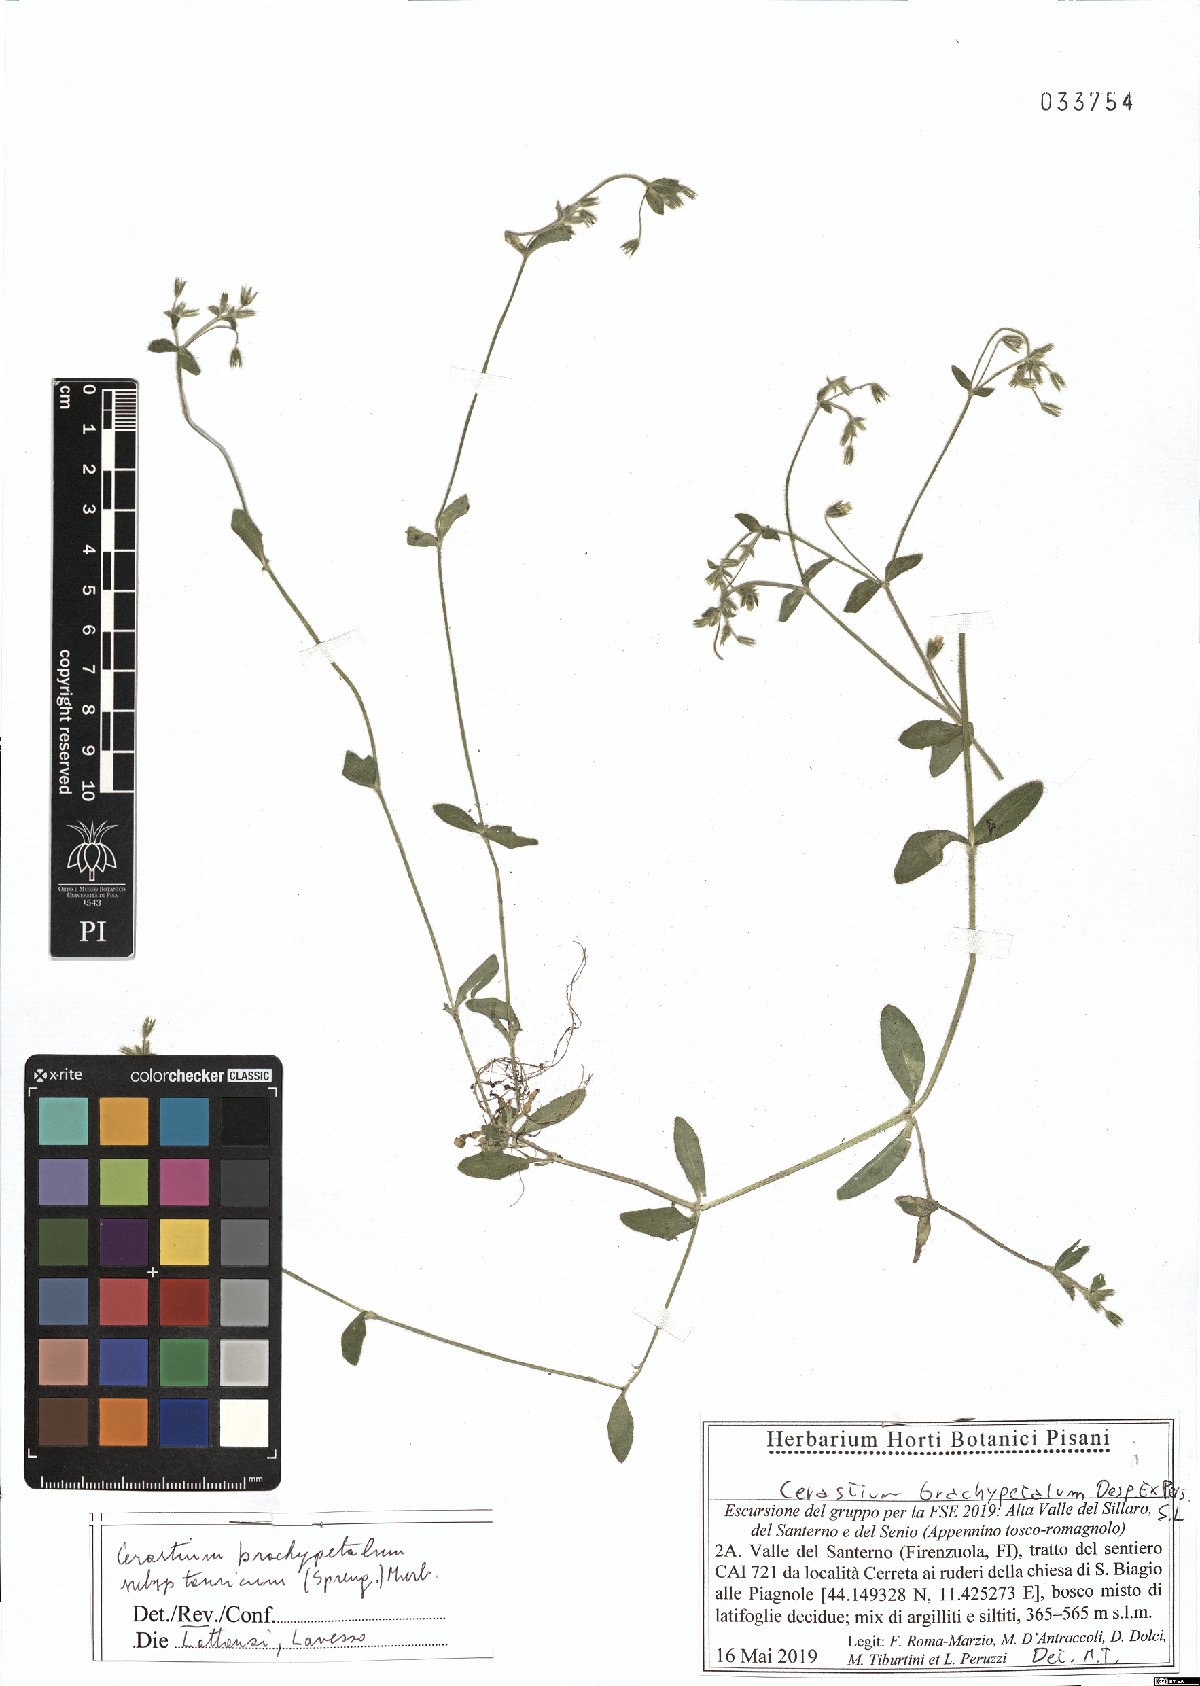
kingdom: Plantae
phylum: Tracheophyta
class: Magnoliopsida
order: Caryophyllales
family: Caryophyllaceae
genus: Cerastium
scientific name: Cerastium brachypetalum
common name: Grey mouse-ear
